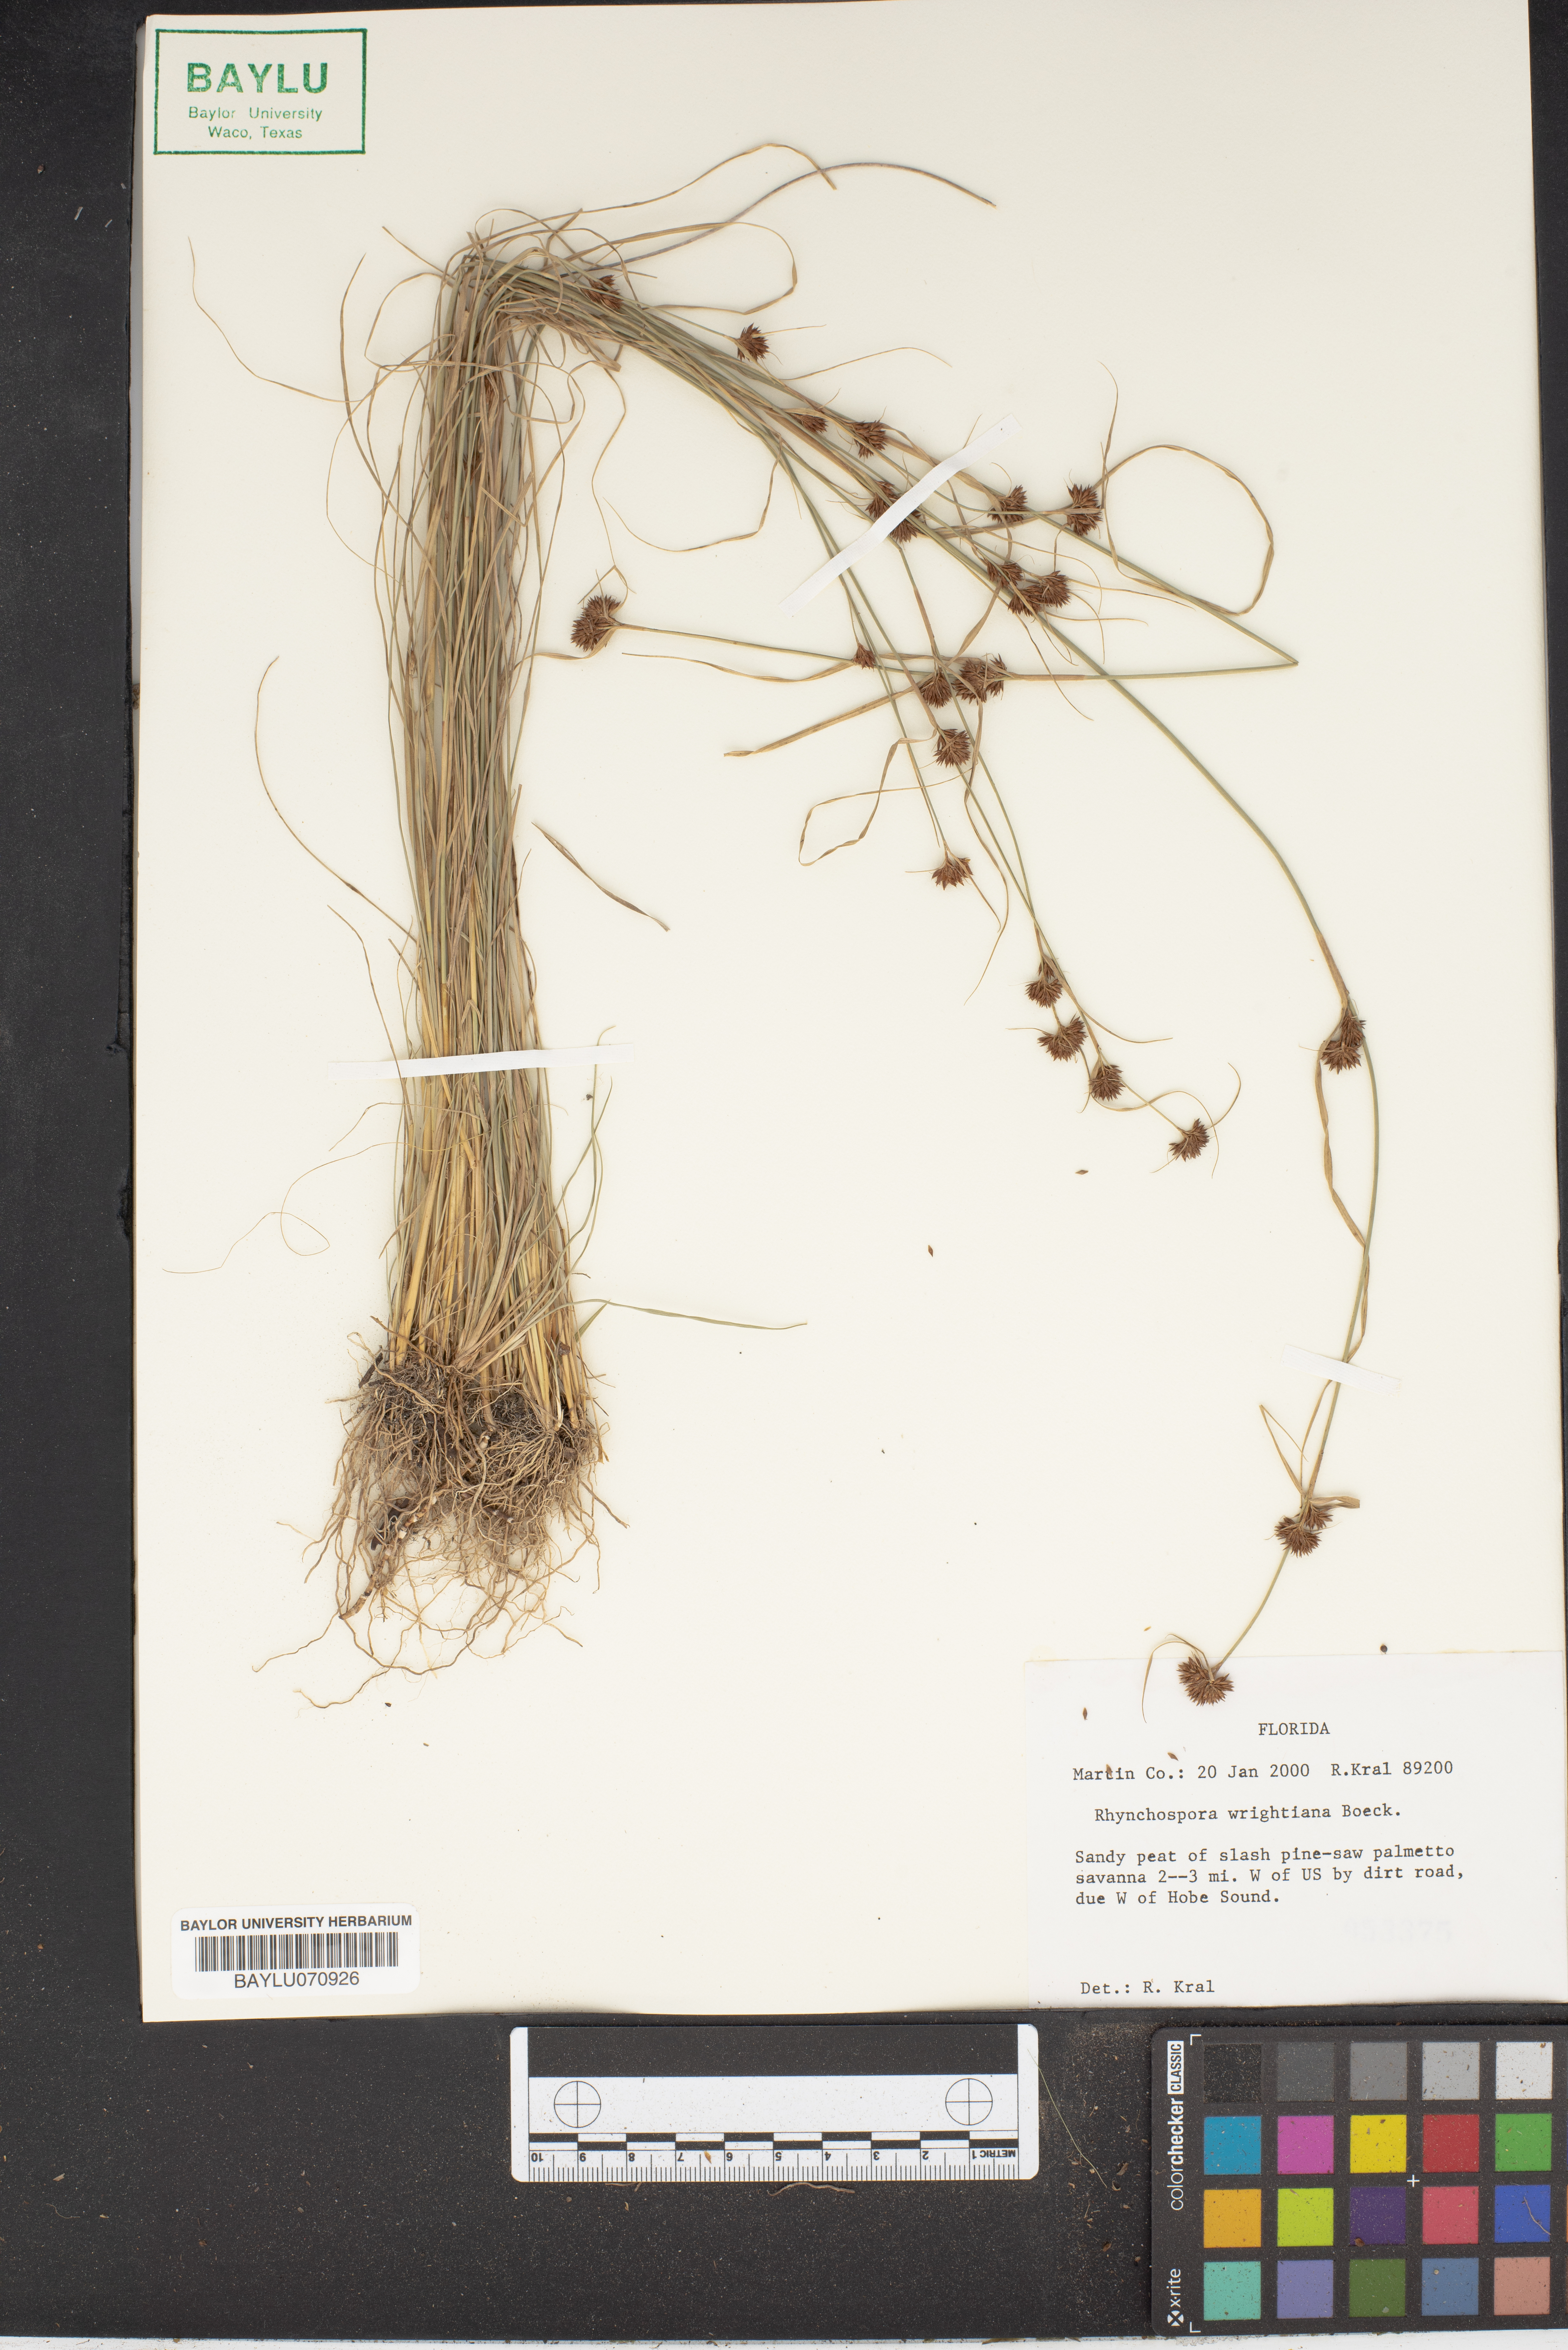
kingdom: Plantae
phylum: Tracheophyta
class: Liliopsida
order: Poales
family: Cyperaceae
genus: Rhynchospora
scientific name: Rhynchospora wrightiana
